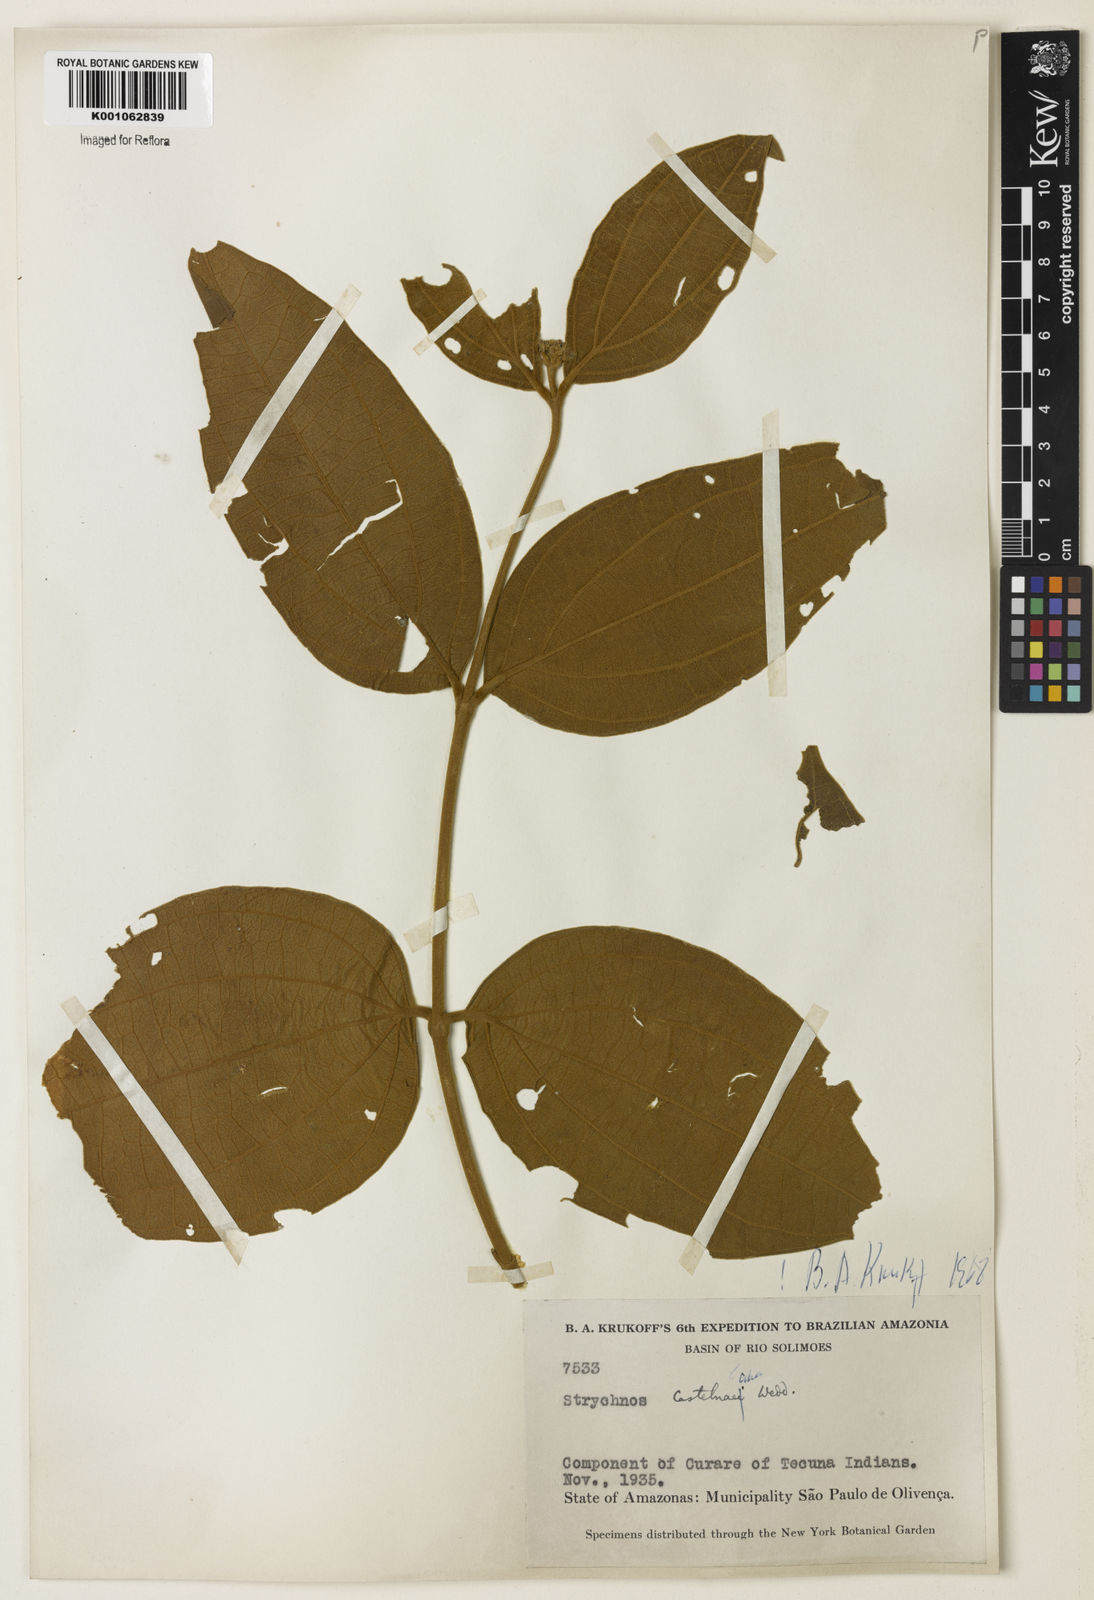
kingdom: Plantae
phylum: Tracheophyta
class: Magnoliopsida
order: Gentianales
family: Loganiaceae
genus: Strychnos
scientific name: Strychnos
